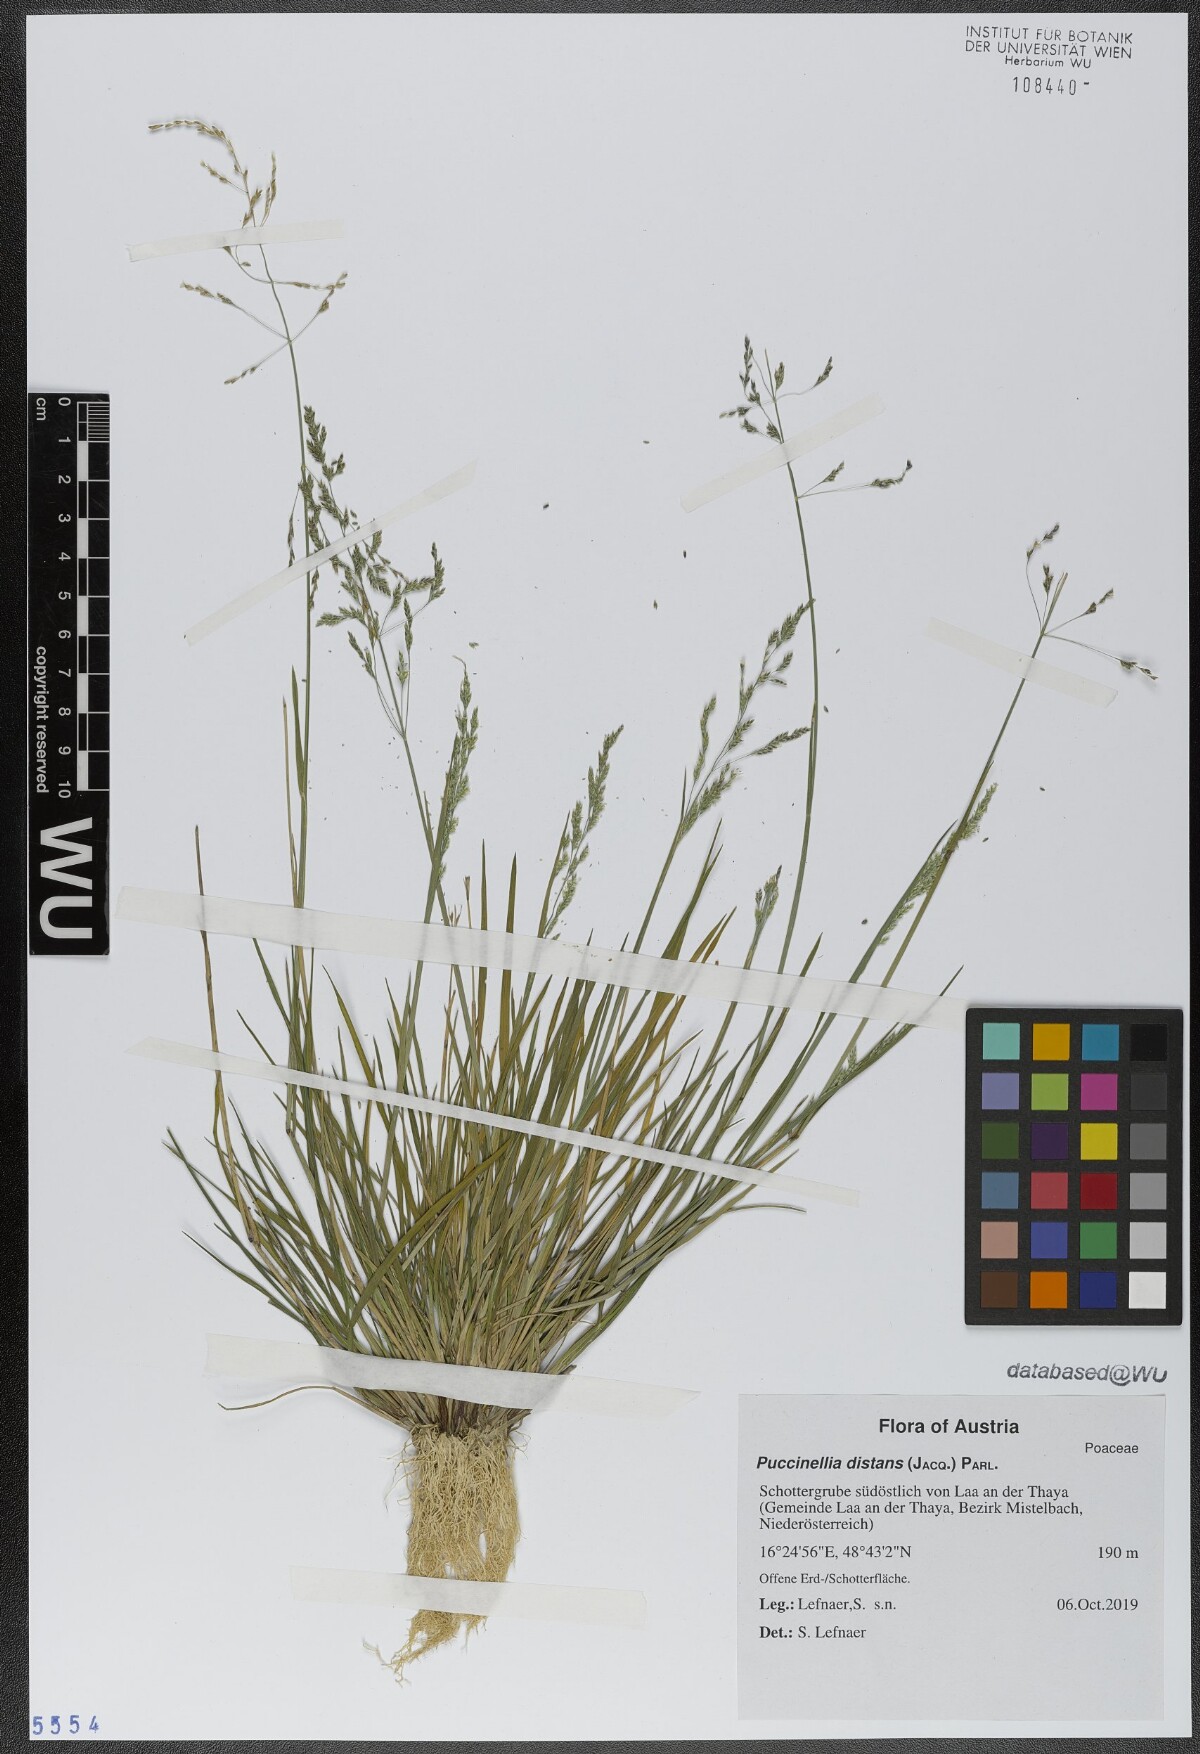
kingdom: Plantae
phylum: Tracheophyta
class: Liliopsida
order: Poales
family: Poaceae
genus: Puccinellia
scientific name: Puccinellia distans
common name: Weeping alkaligrass
